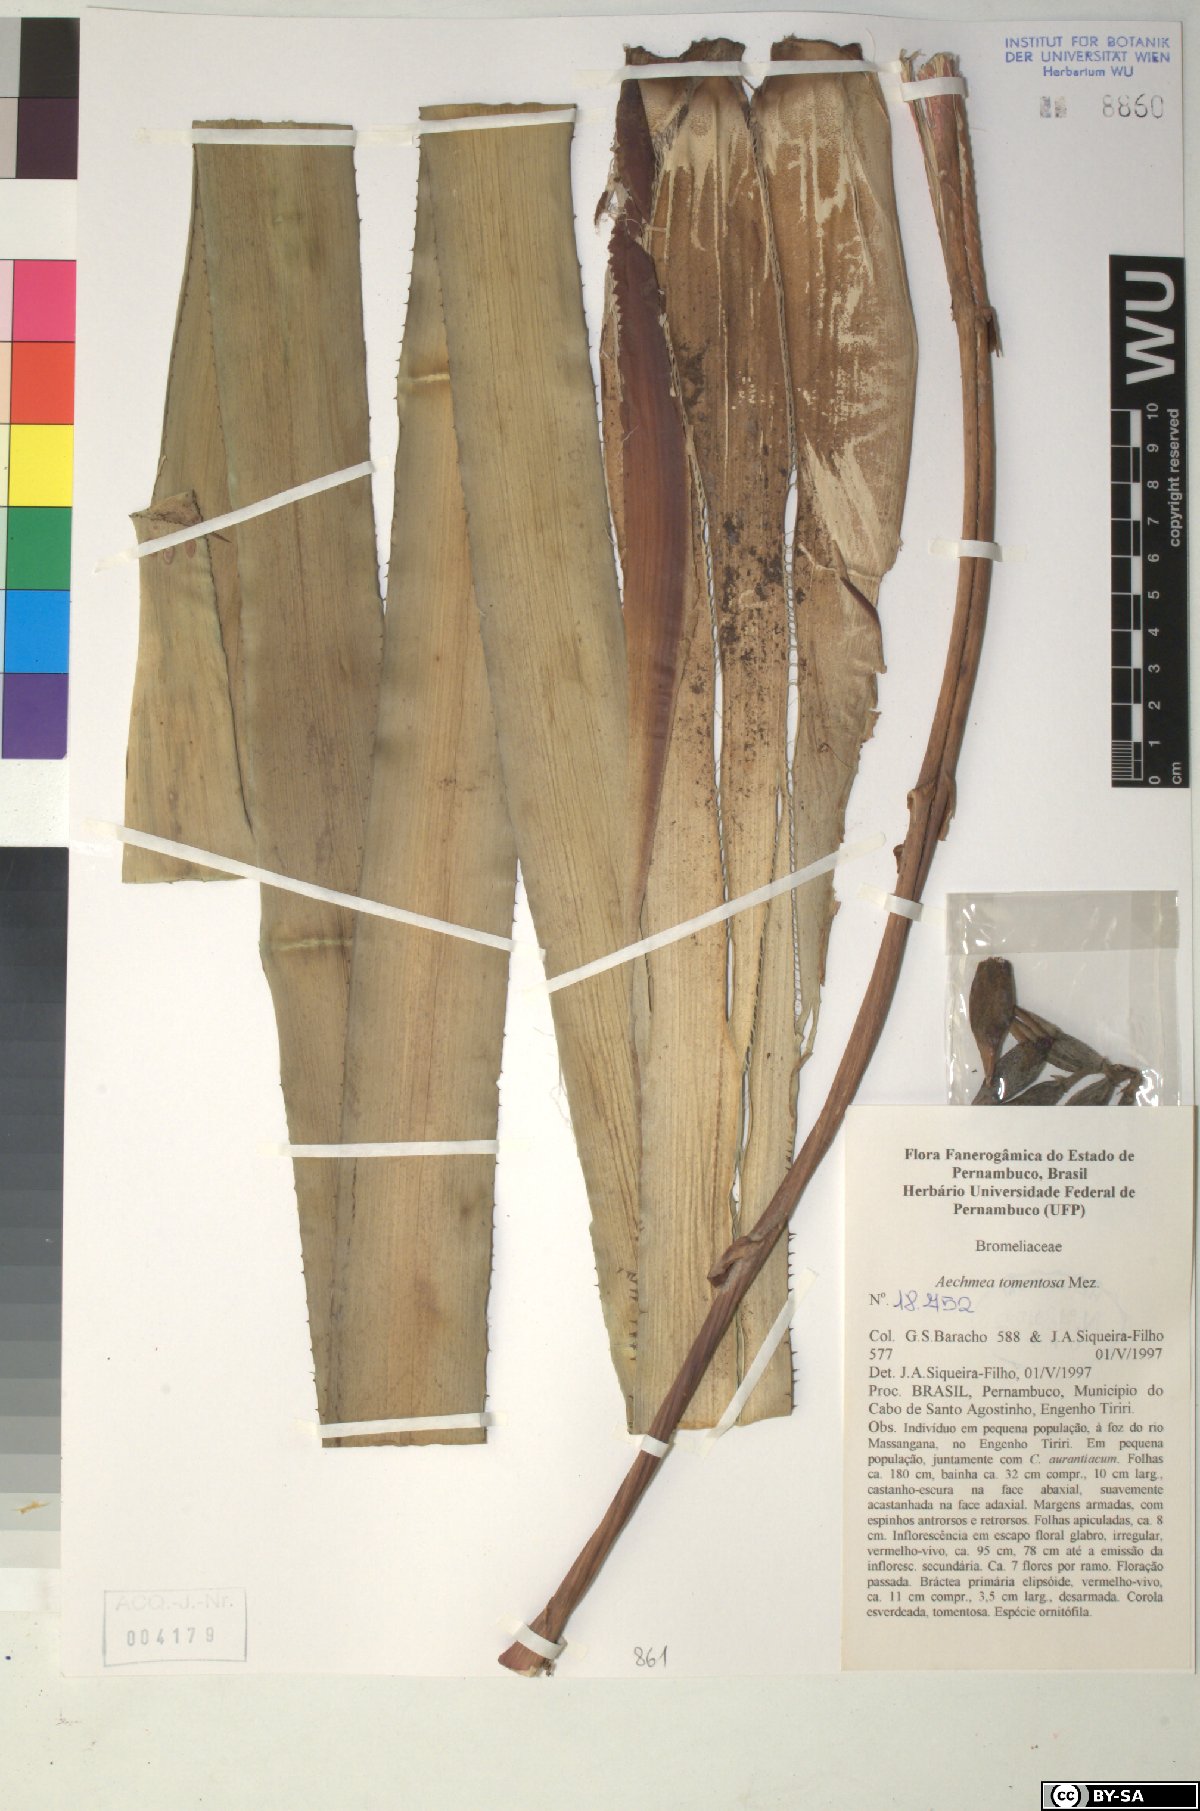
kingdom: Plantae
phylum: Tracheophyta
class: Liliopsida
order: Poales
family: Bromeliaceae
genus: Aechmea
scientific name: Aechmea tomentosa
